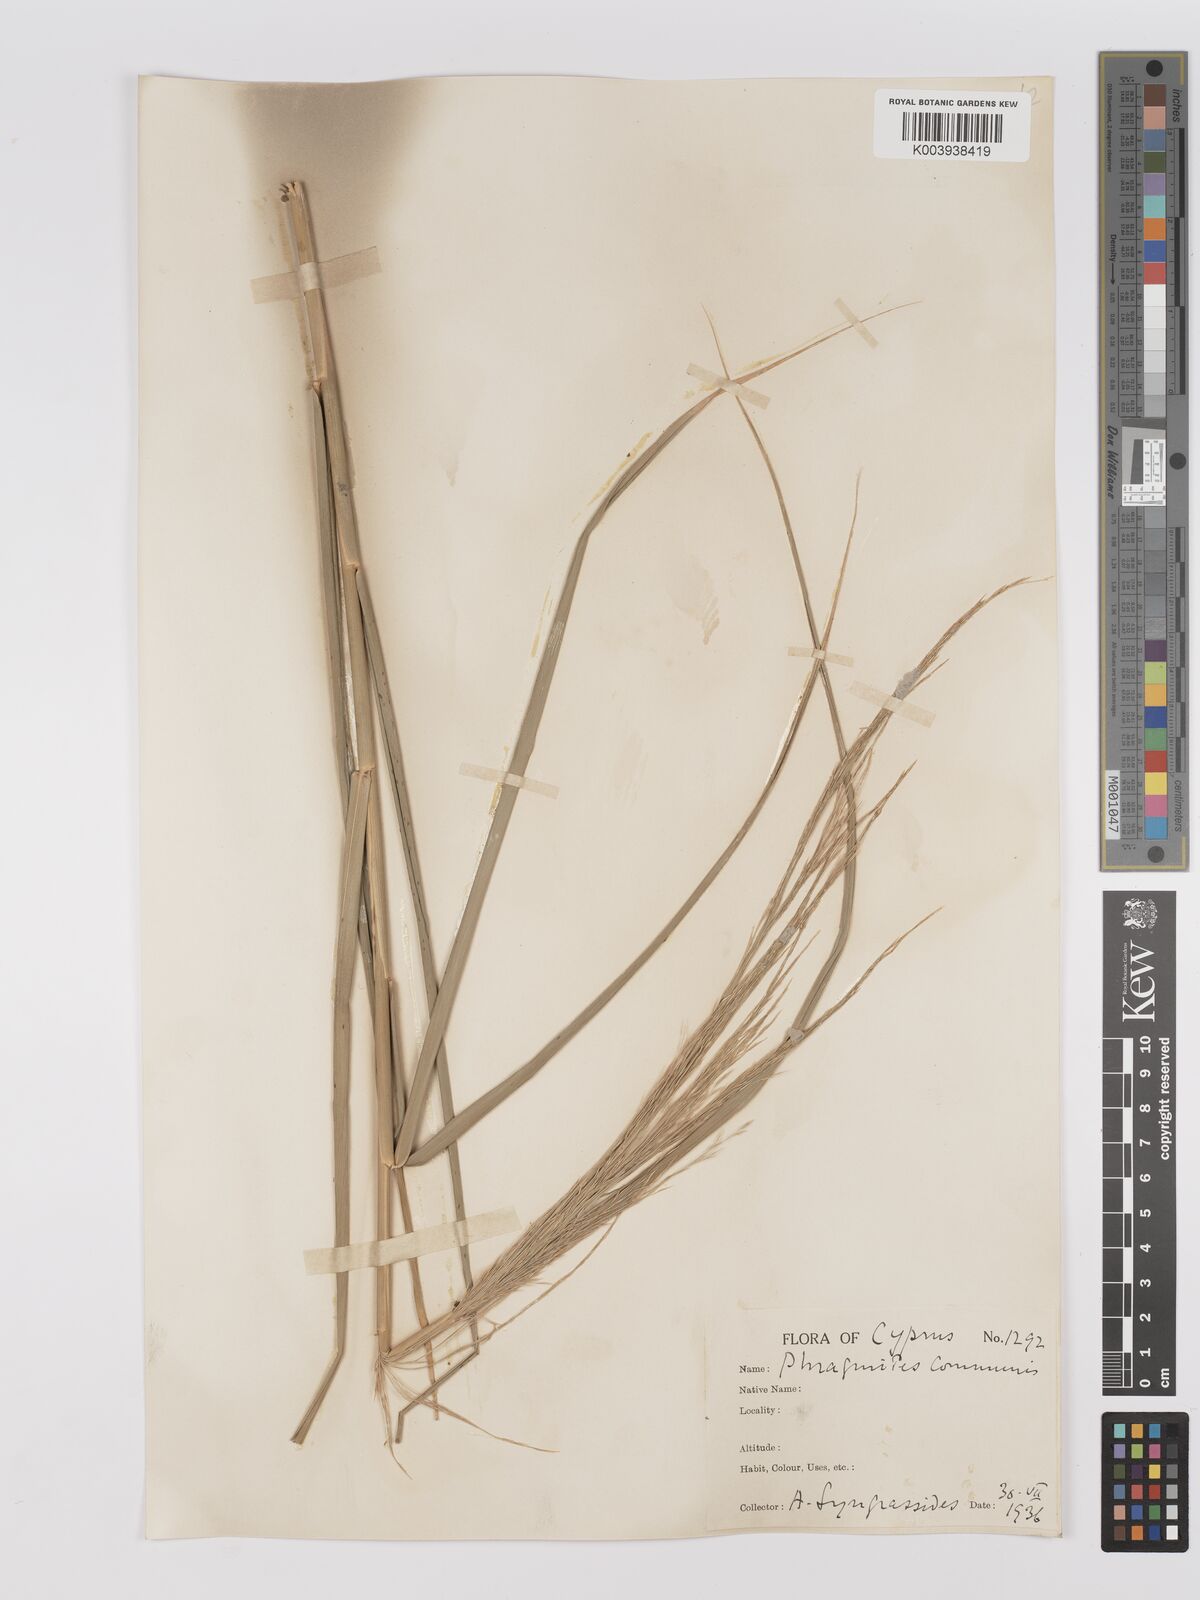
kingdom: Plantae
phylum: Tracheophyta
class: Liliopsida
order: Poales
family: Poaceae
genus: Phragmites
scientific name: Phragmites australis
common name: Common reed
